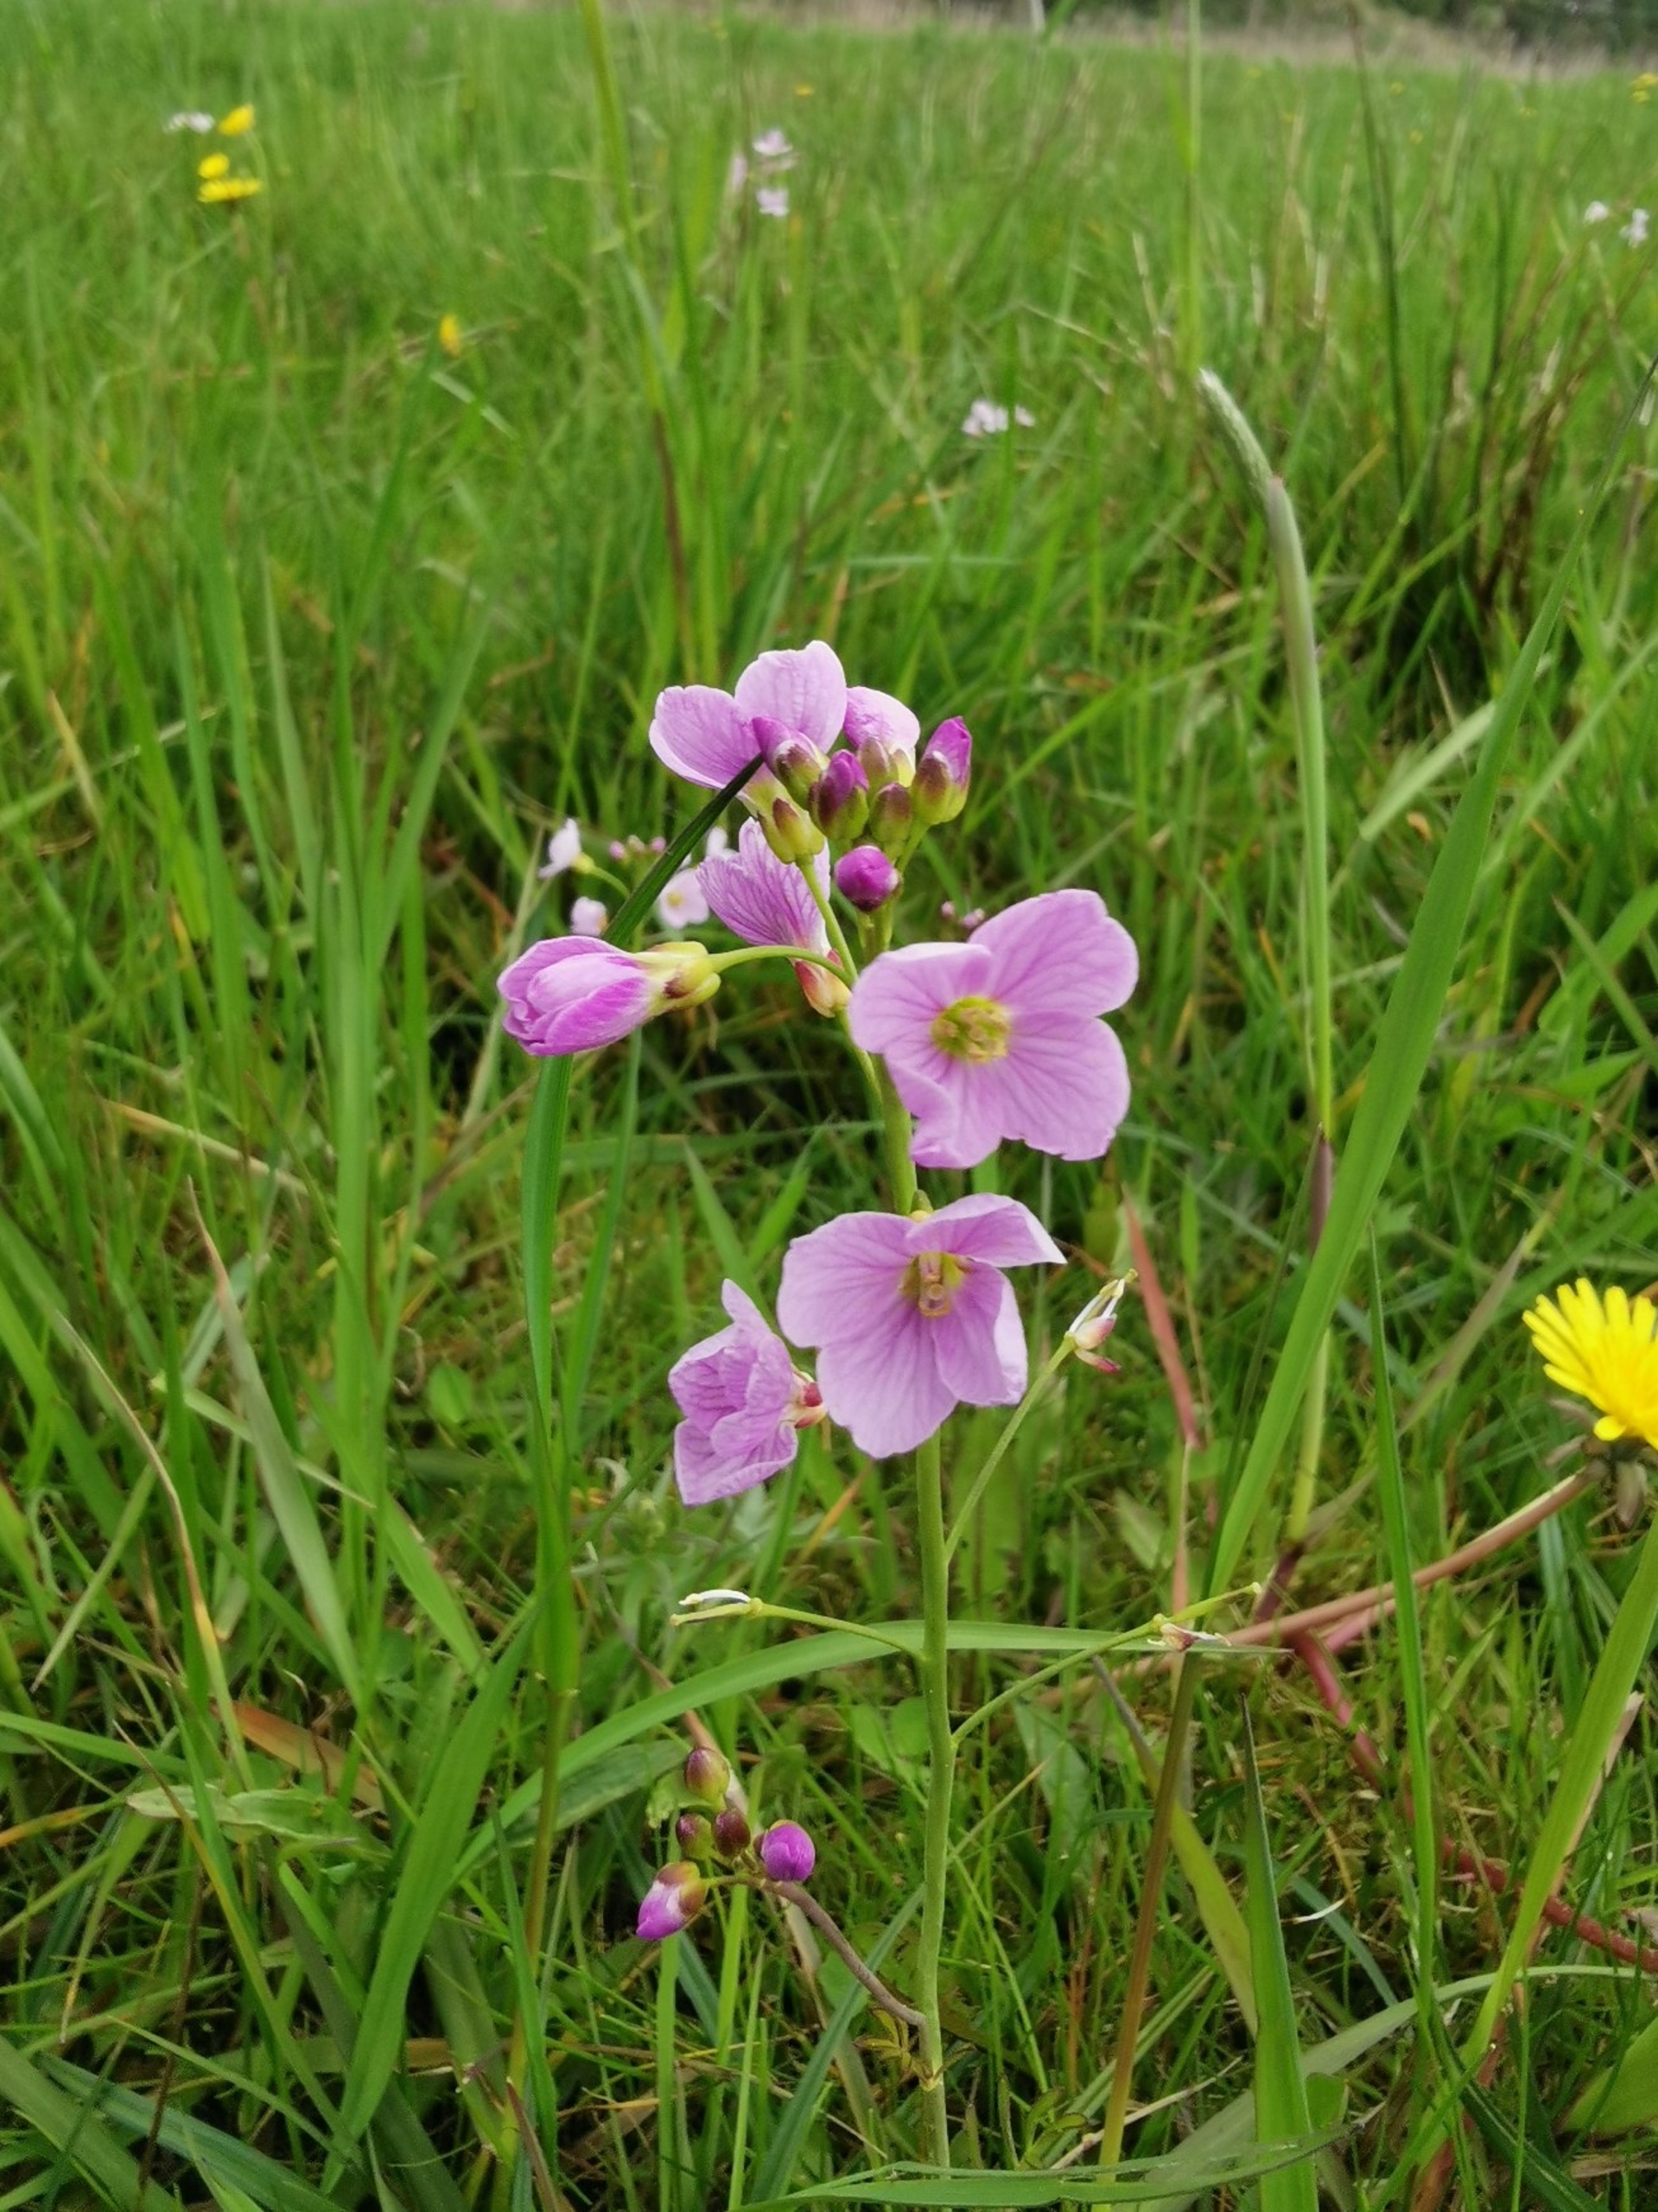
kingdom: Plantae
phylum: Tracheophyta
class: Magnoliopsida
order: Brassicales
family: Brassicaceae
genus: Cardamine
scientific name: Cardamine pratensis
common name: Engkarse
